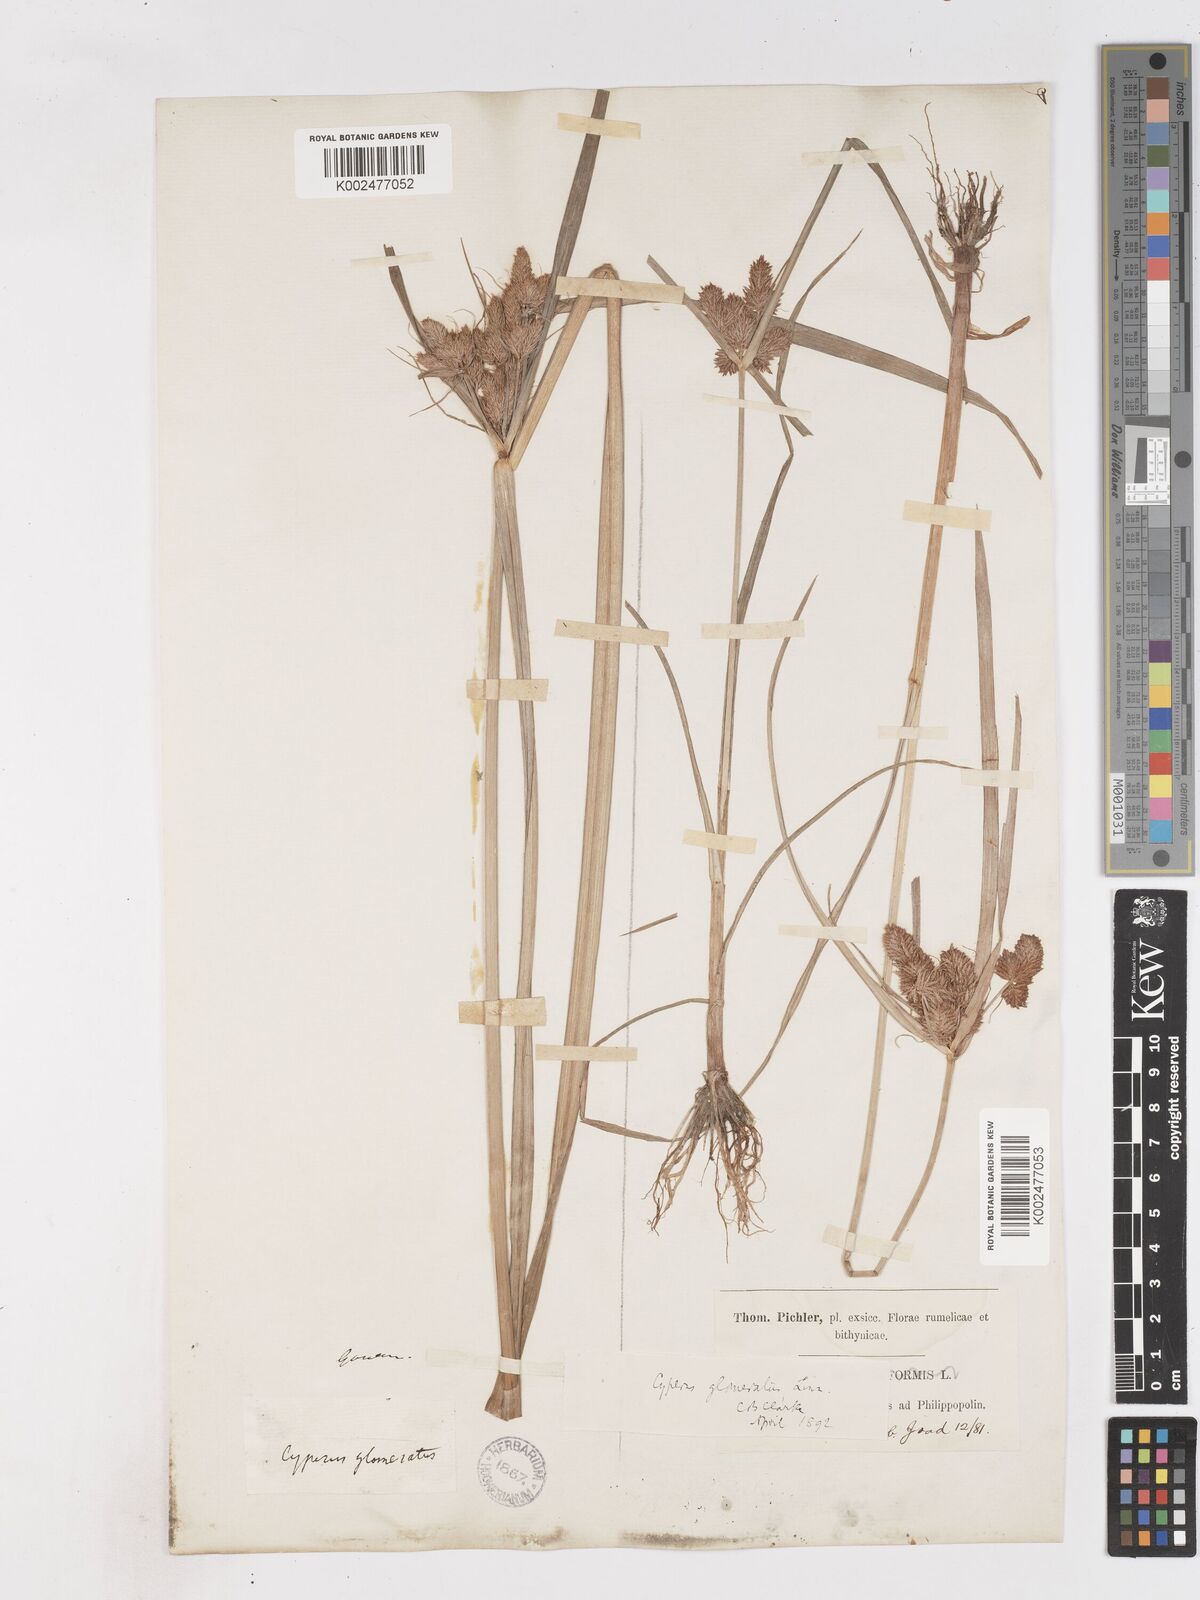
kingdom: Plantae
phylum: Tracheophyta
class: Liliopsida
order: Poales
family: Cyperaceae
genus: Cyperus
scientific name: Cyperus glomeratus
